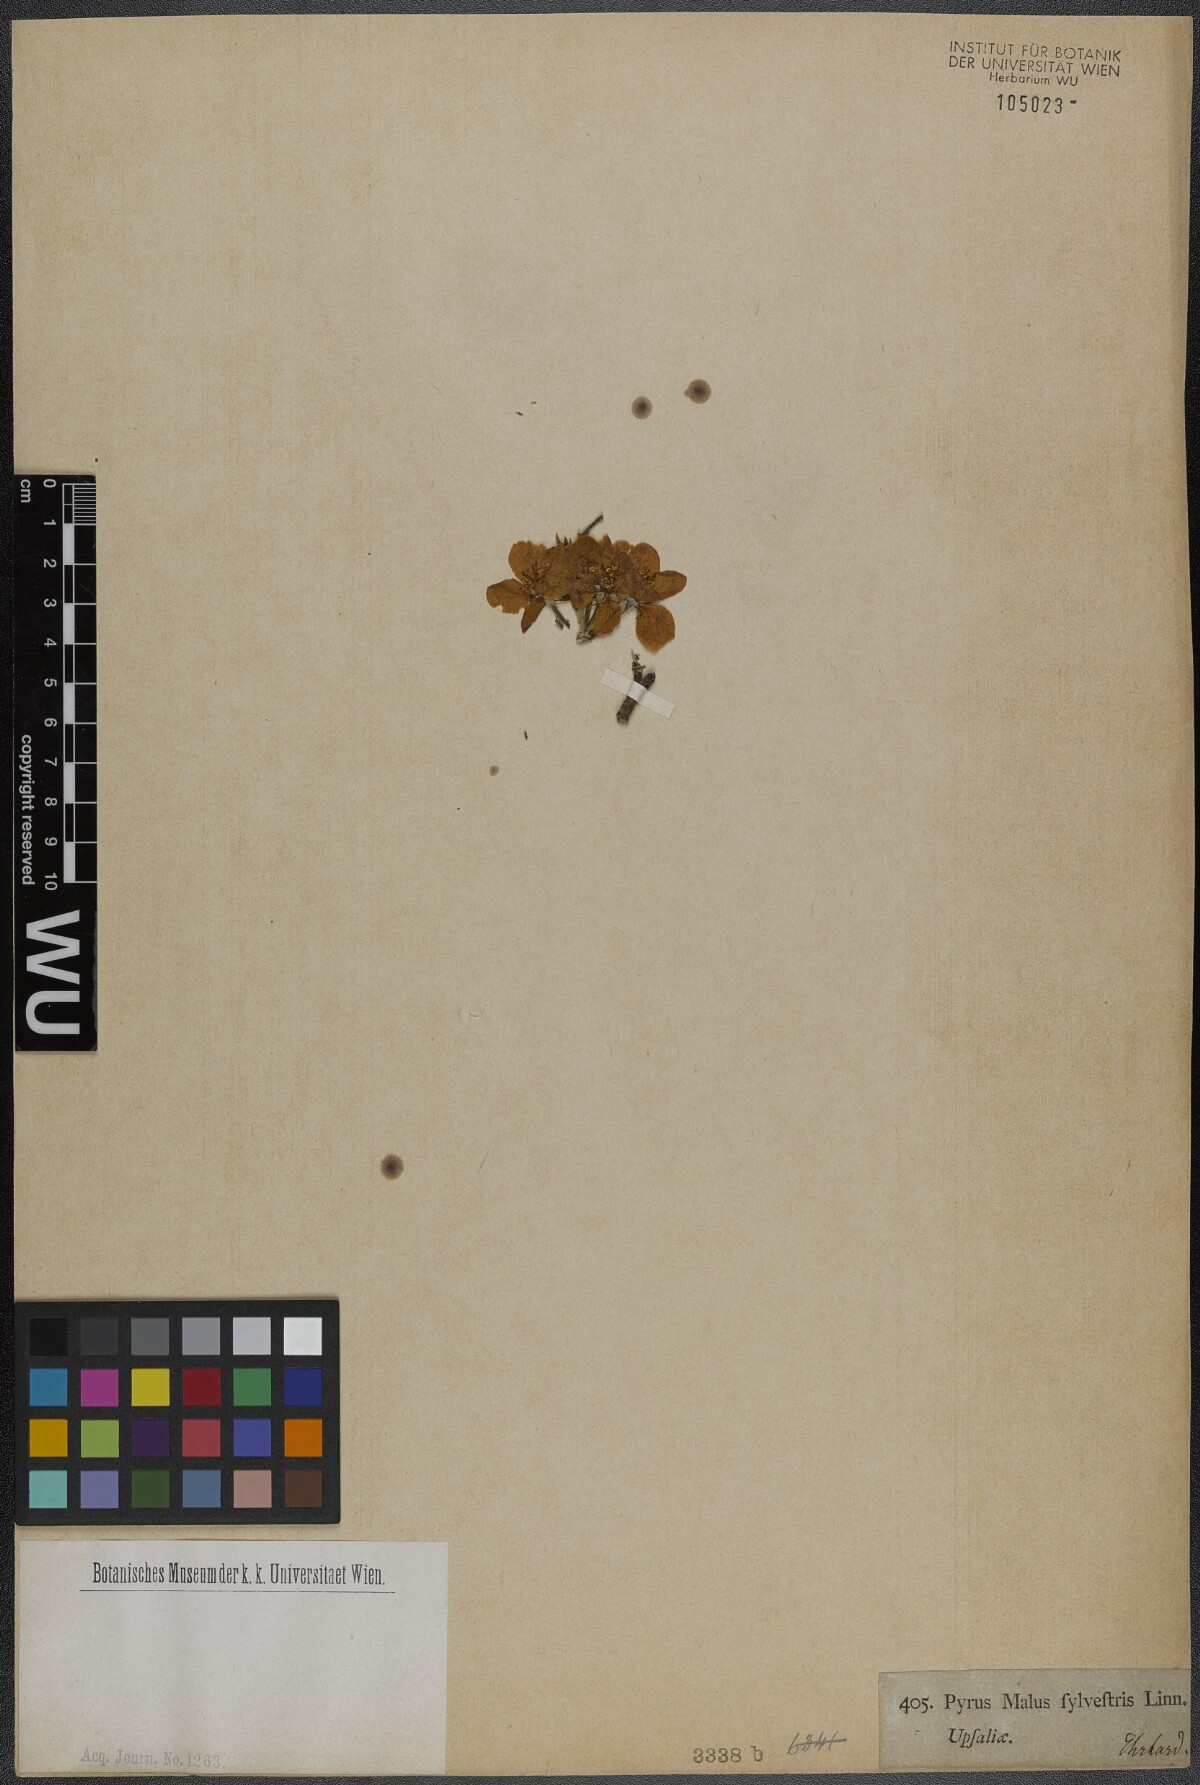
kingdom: Plantae
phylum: Tracheophyta
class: Magnoliopsida
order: Rosales
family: Rosaceae
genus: Malus
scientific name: Malus sylvestris
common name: Crab apple
